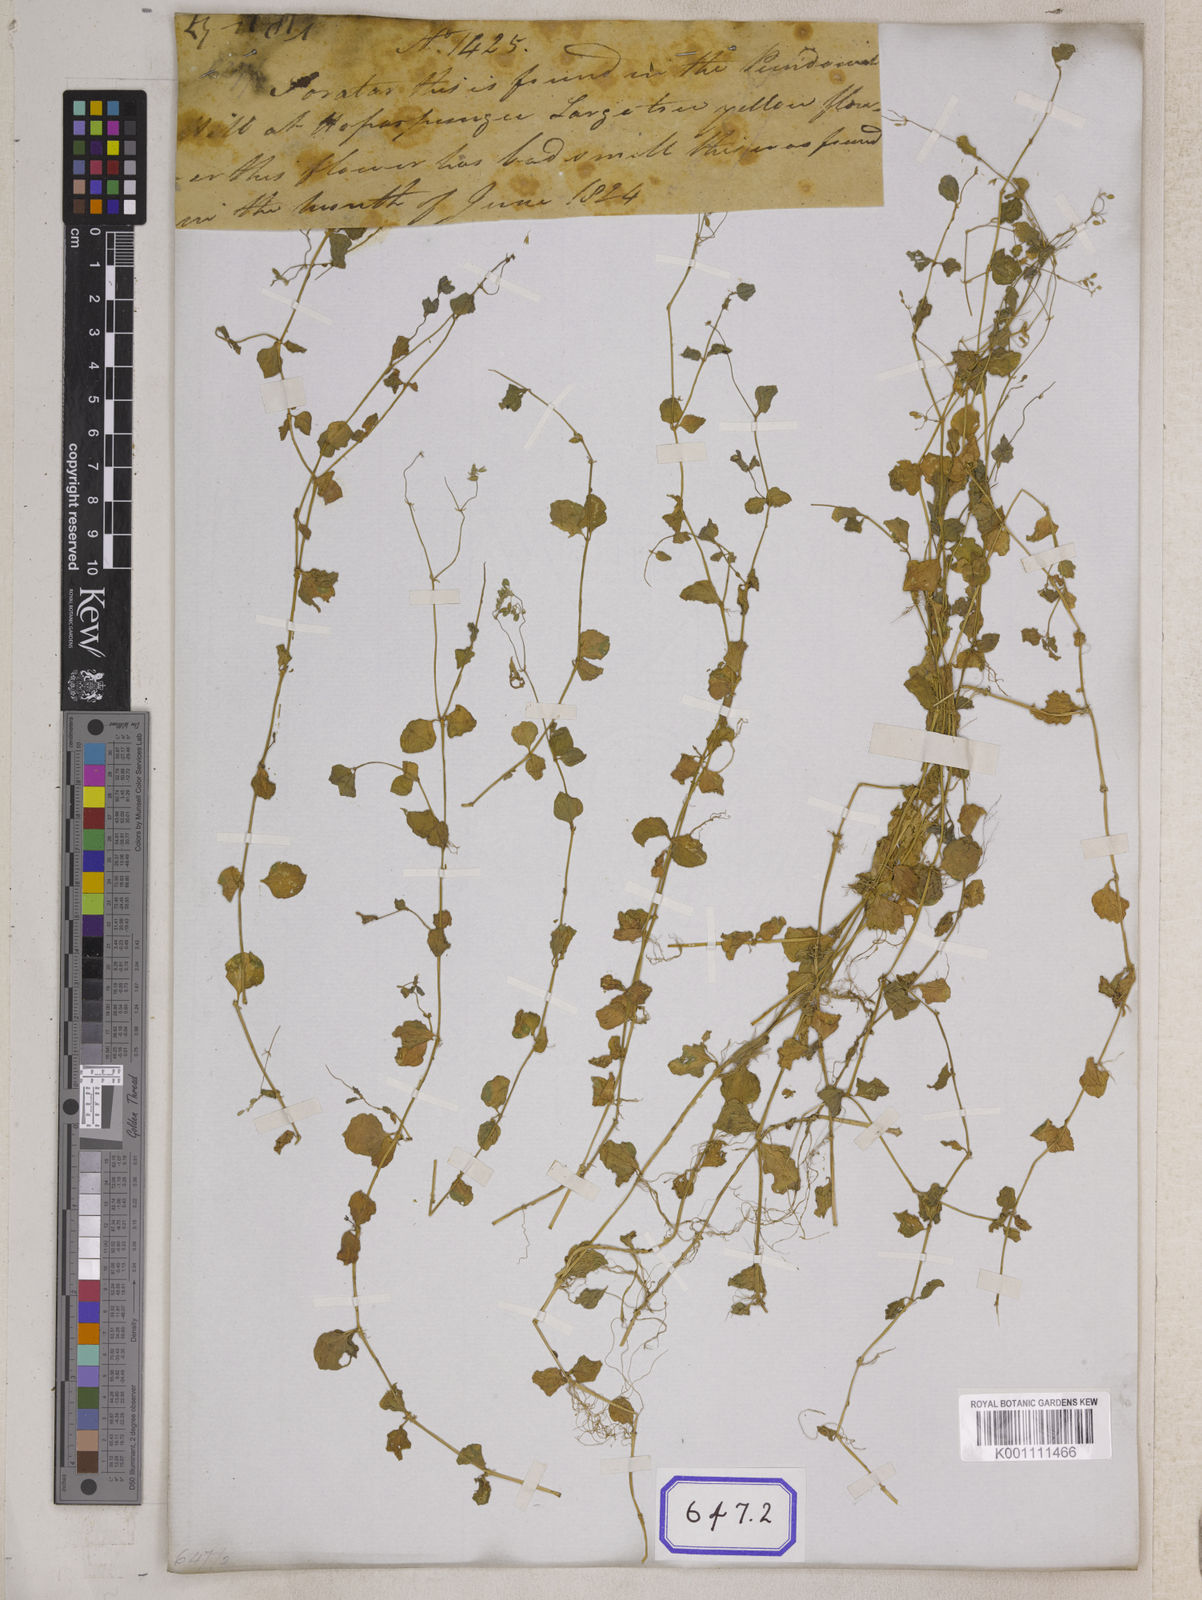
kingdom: Plantae
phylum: Tracheophyta
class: Magnoliopsida
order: Caryophyllales
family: Caryophyllaceae
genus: Drymaria
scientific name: Drymaria
